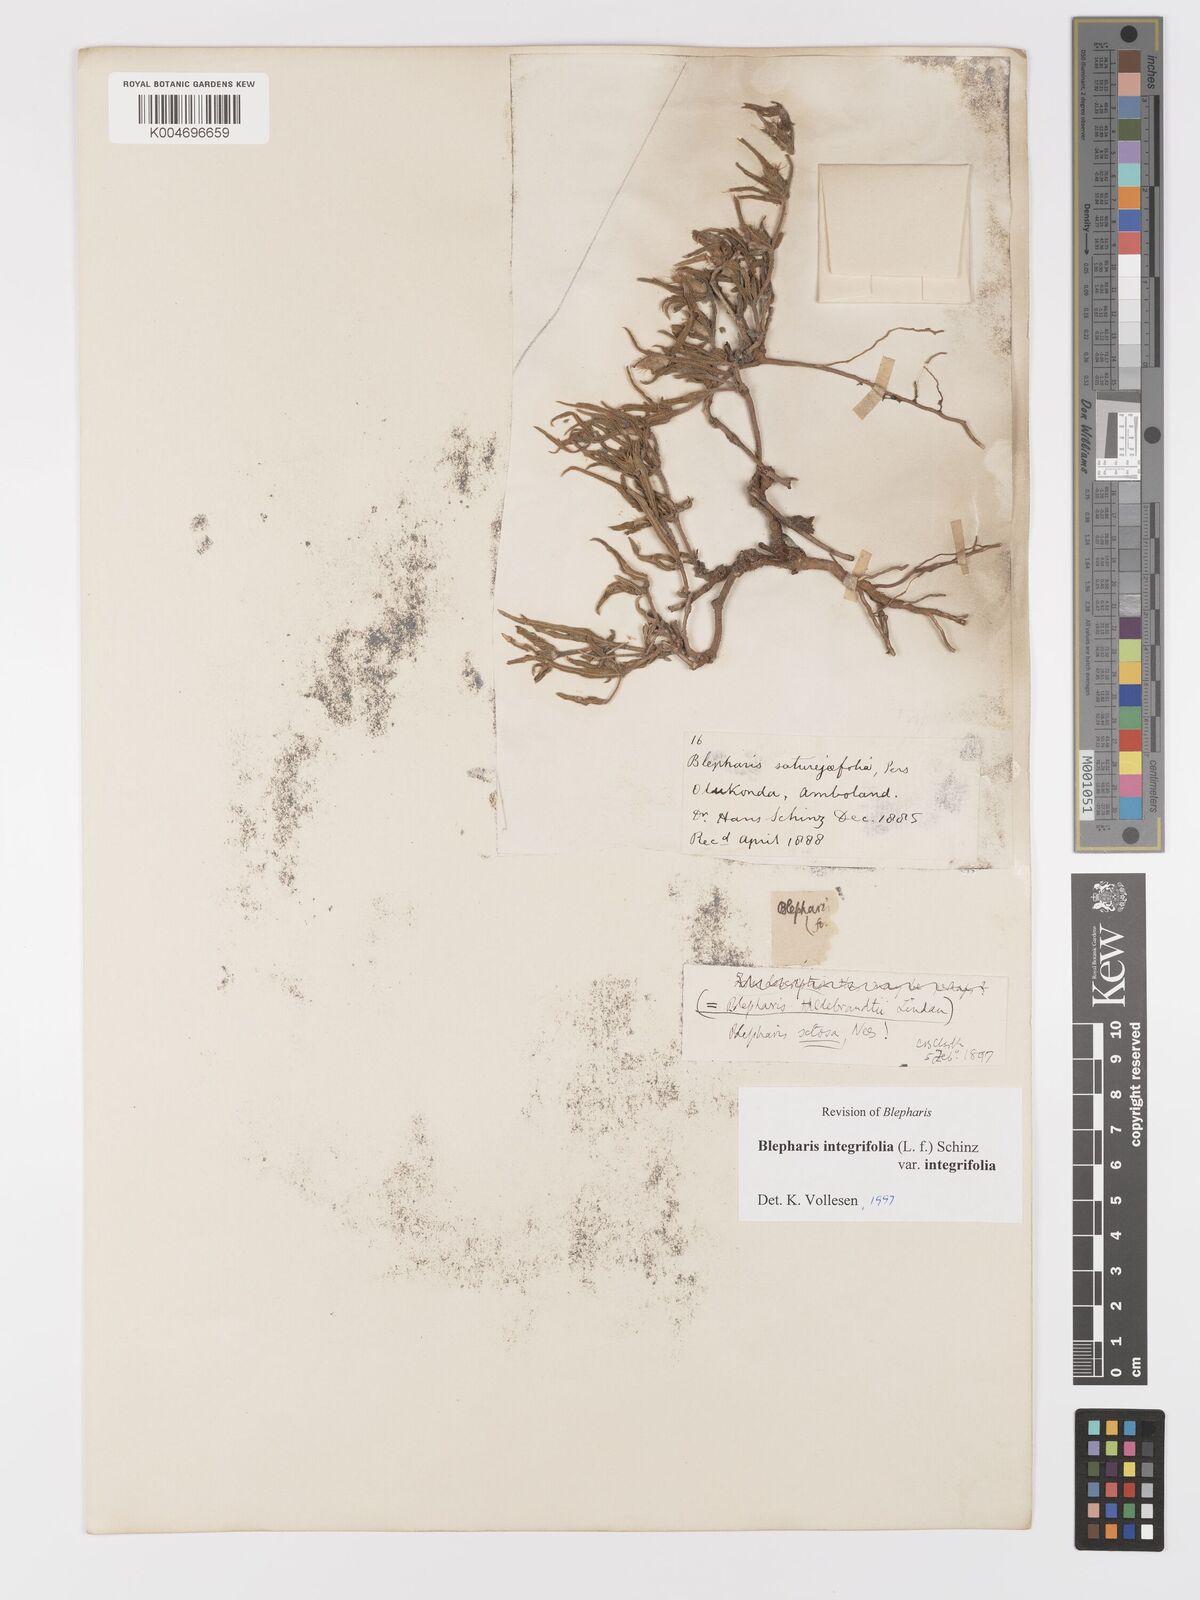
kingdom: Plantae
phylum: Tracheophyta
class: Magnoliopsida
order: Lamiales
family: Acanthaceae
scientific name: Acanthaceae
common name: Acanthaceae
